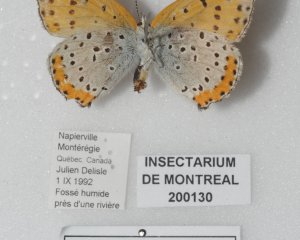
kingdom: Animalia
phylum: Arthropoda
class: Insecta
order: Lepidoptera
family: Sesiidae
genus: Sesia
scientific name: Sesia Lycaena hyllus
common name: Bronze Copper
